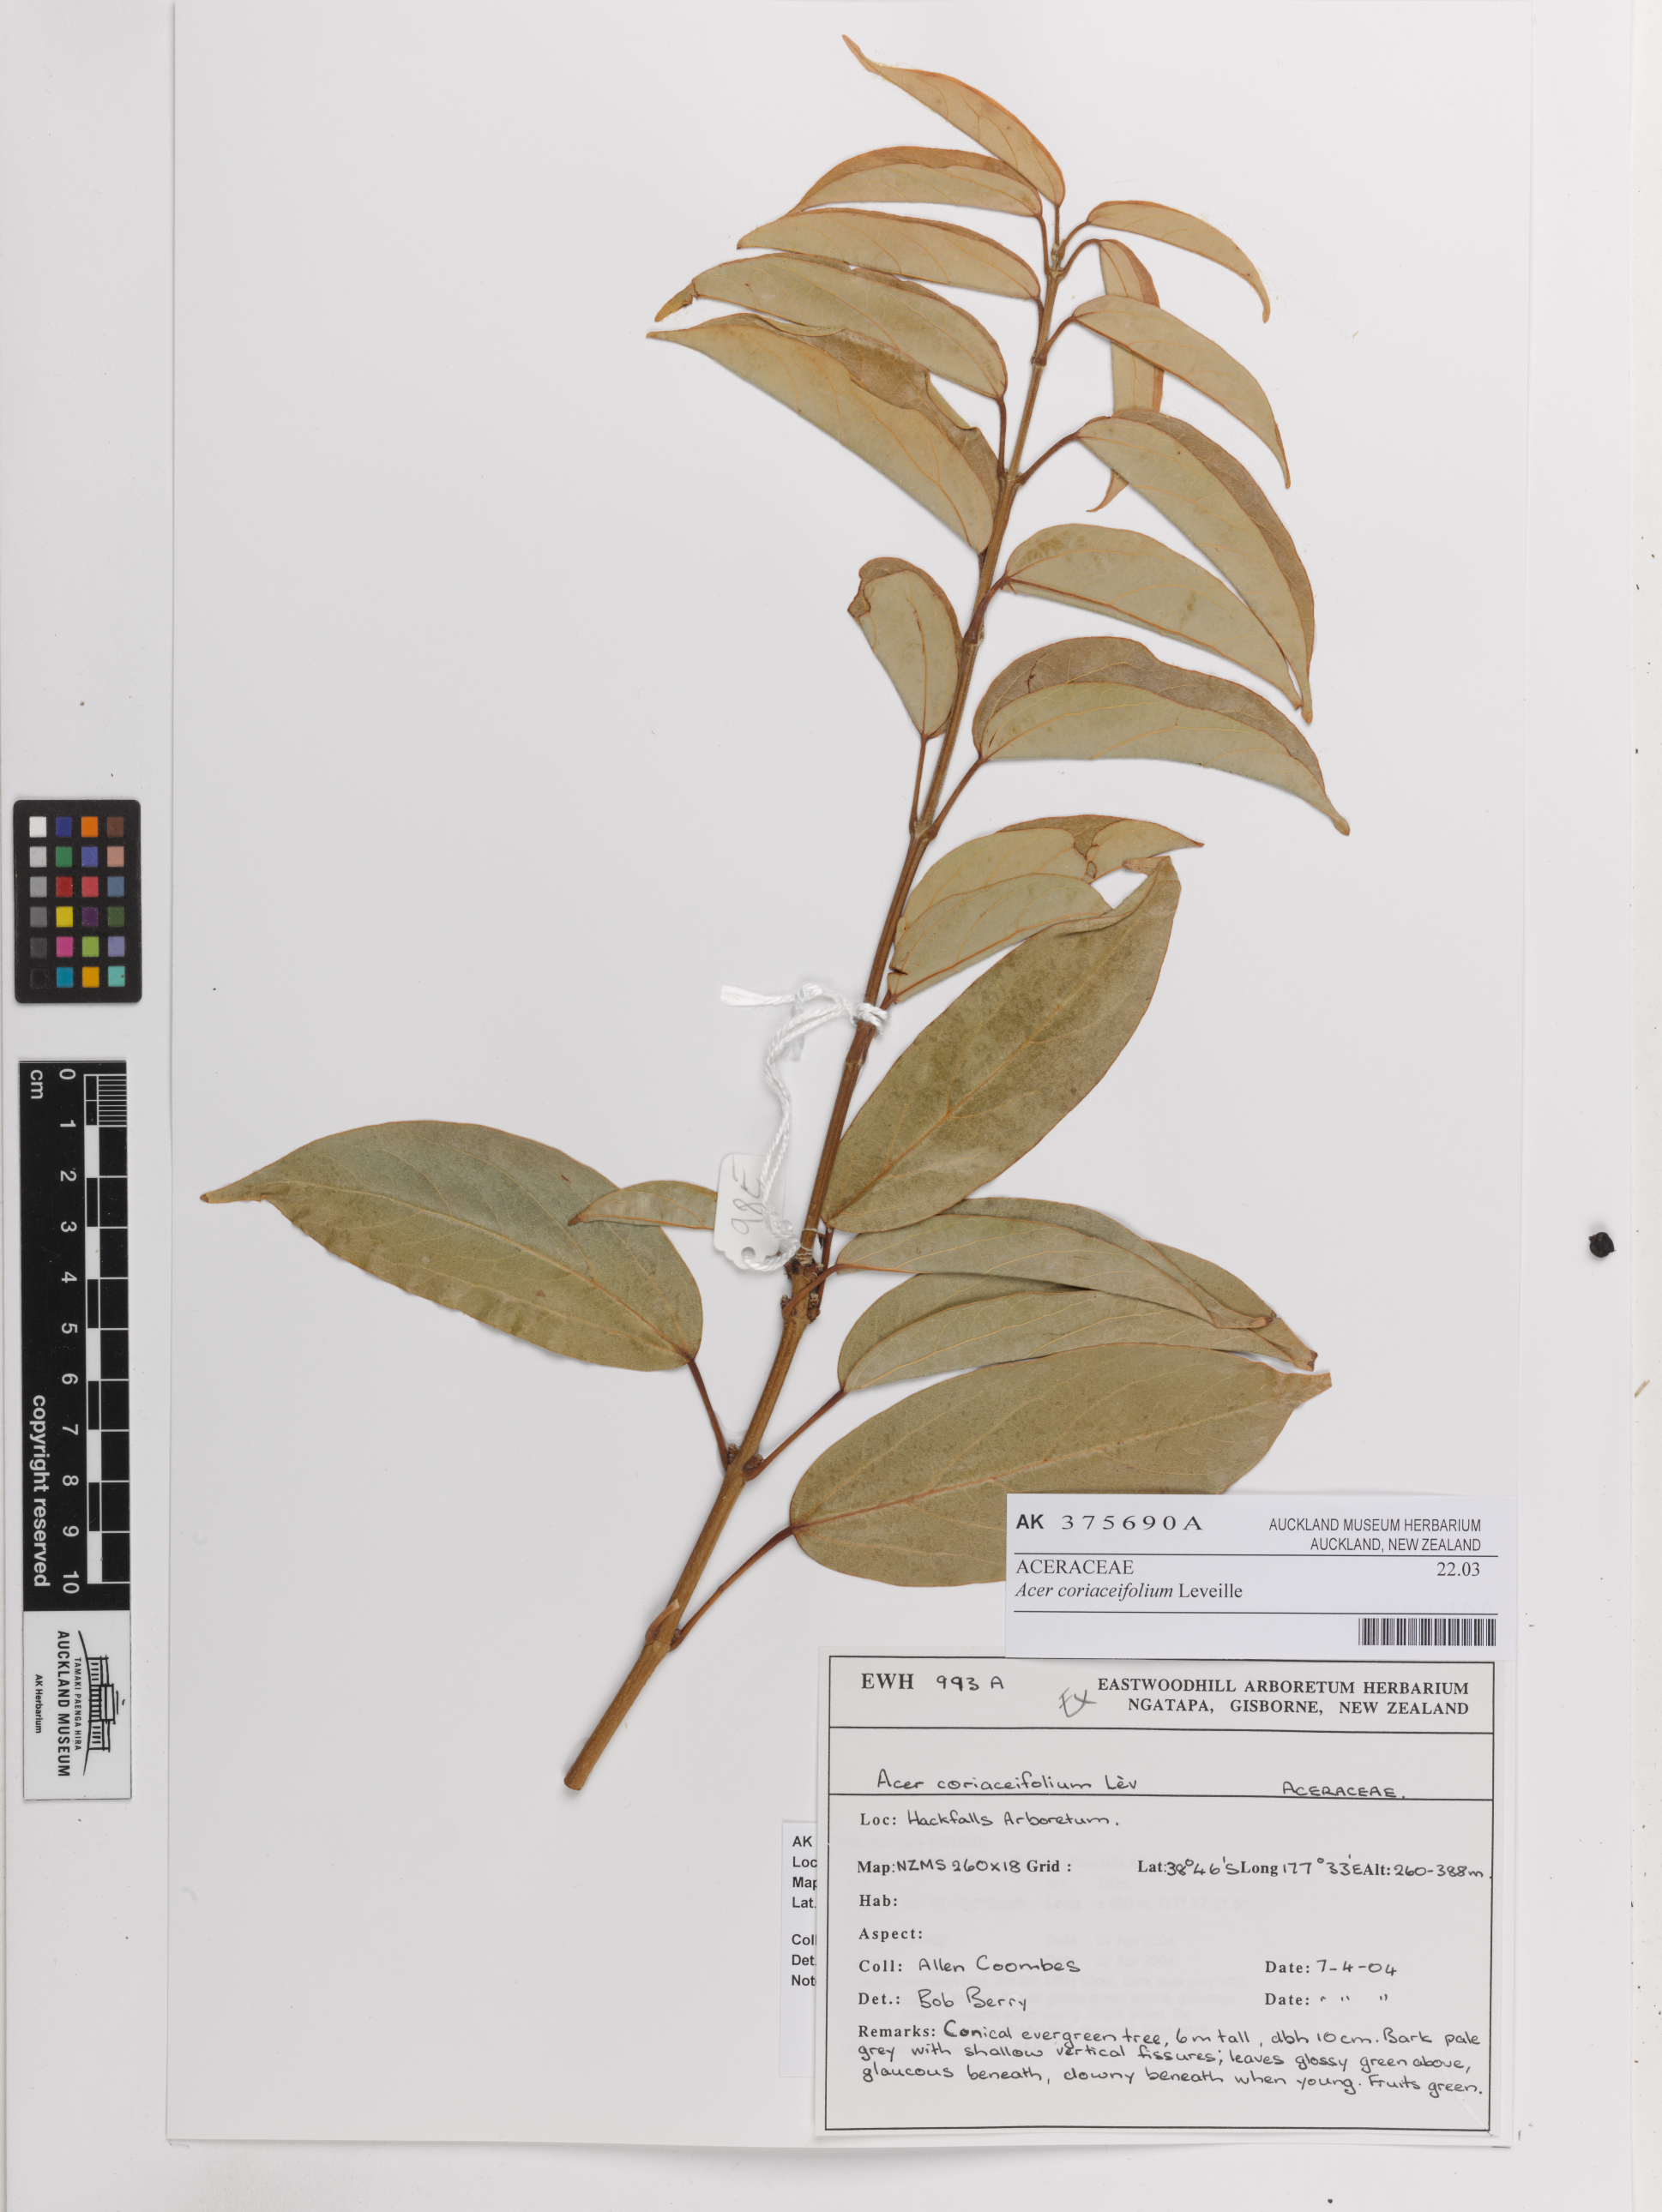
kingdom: Plantae
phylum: Tracheophyta
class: Magnoliopsida
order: Sapindales
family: Sapindaceae
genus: Acer
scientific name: Acer coriaceifolium
